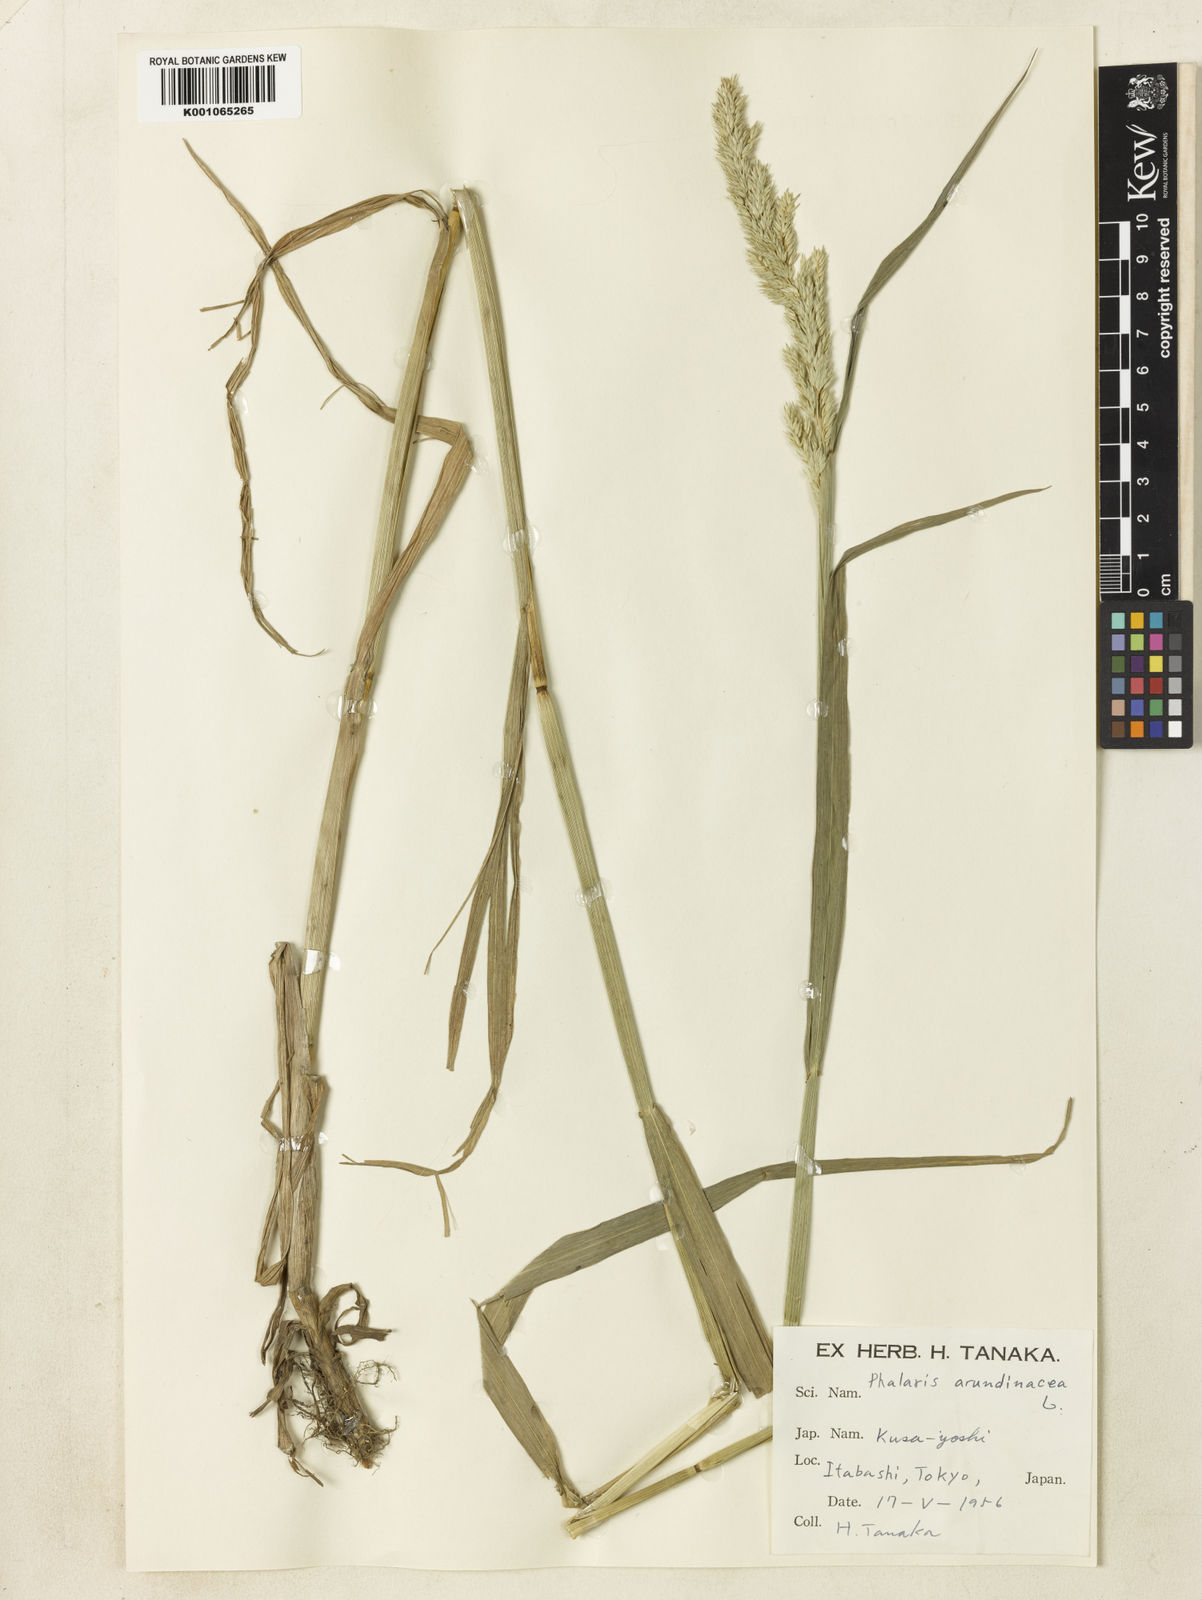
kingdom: Plantae
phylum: Tracheophyta
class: Liliopsida
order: Poales
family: Poaceae
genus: Phalaris
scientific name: Phalaris arundinacea
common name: Reed canary-grass
